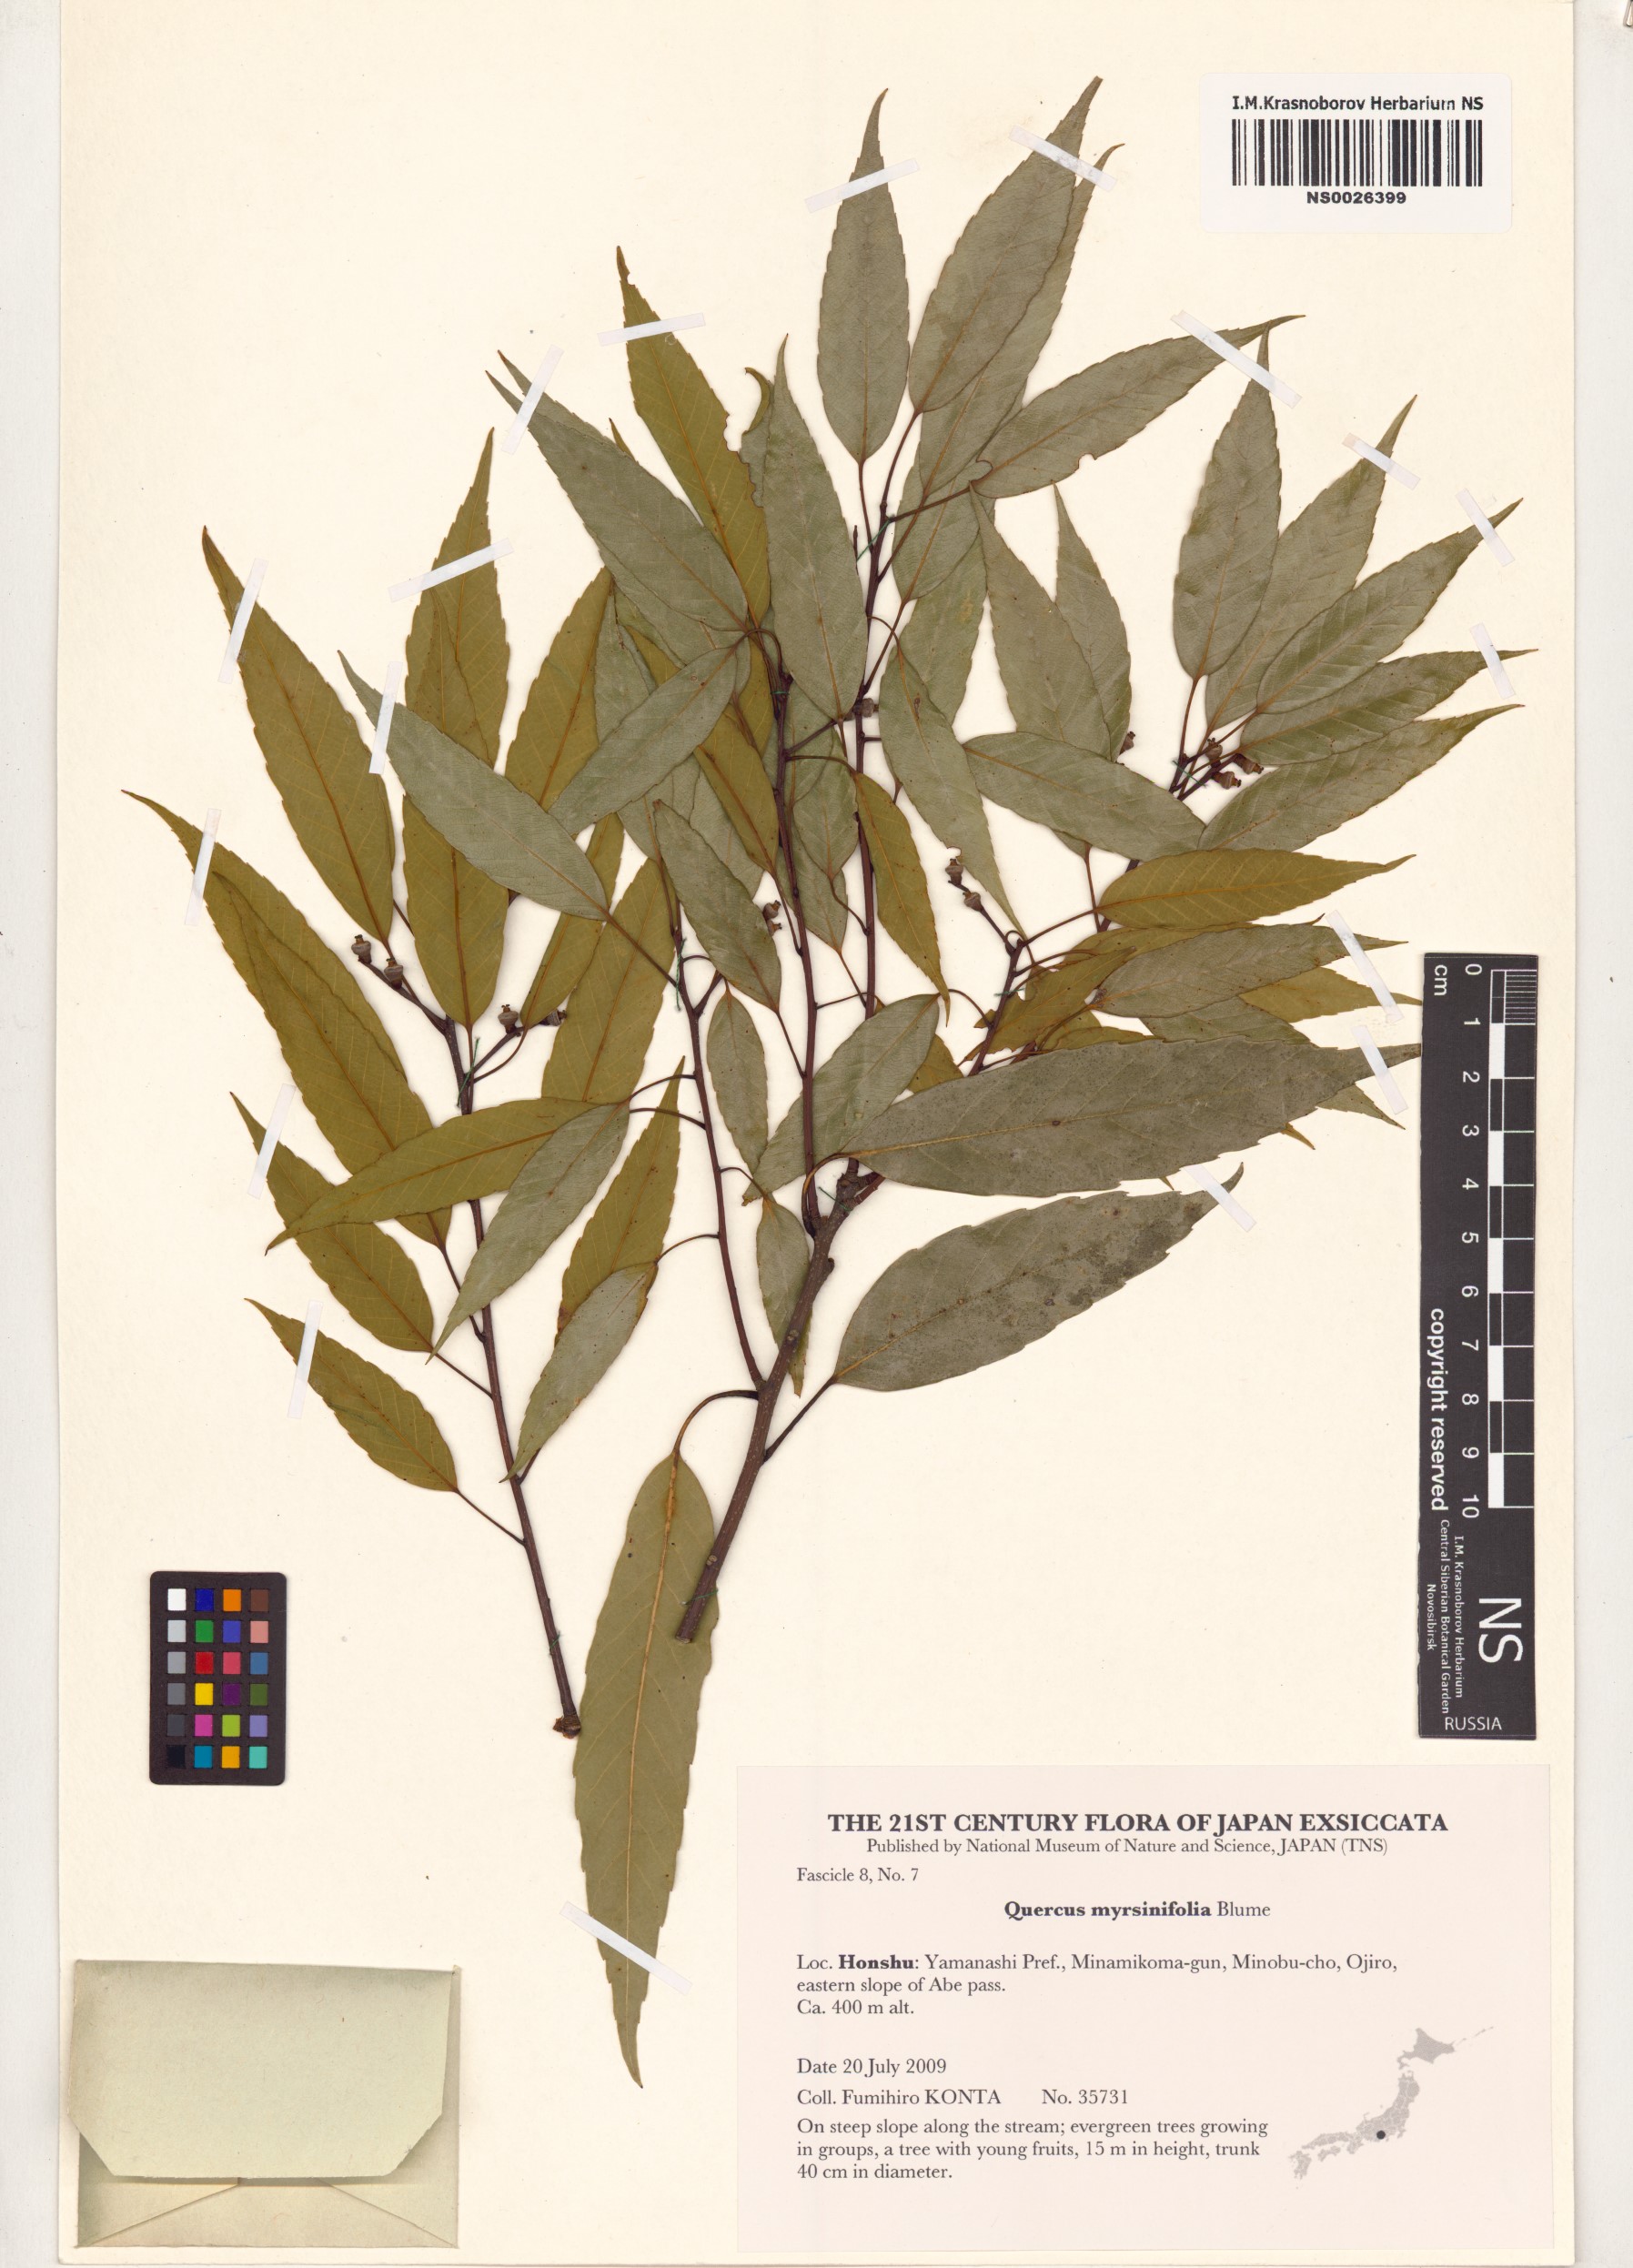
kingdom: Plantae
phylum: Tracheophyta
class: Magnoliopsida
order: Fagales
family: Fagaceae
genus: Quercus
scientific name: Quercus myrsinifolia
